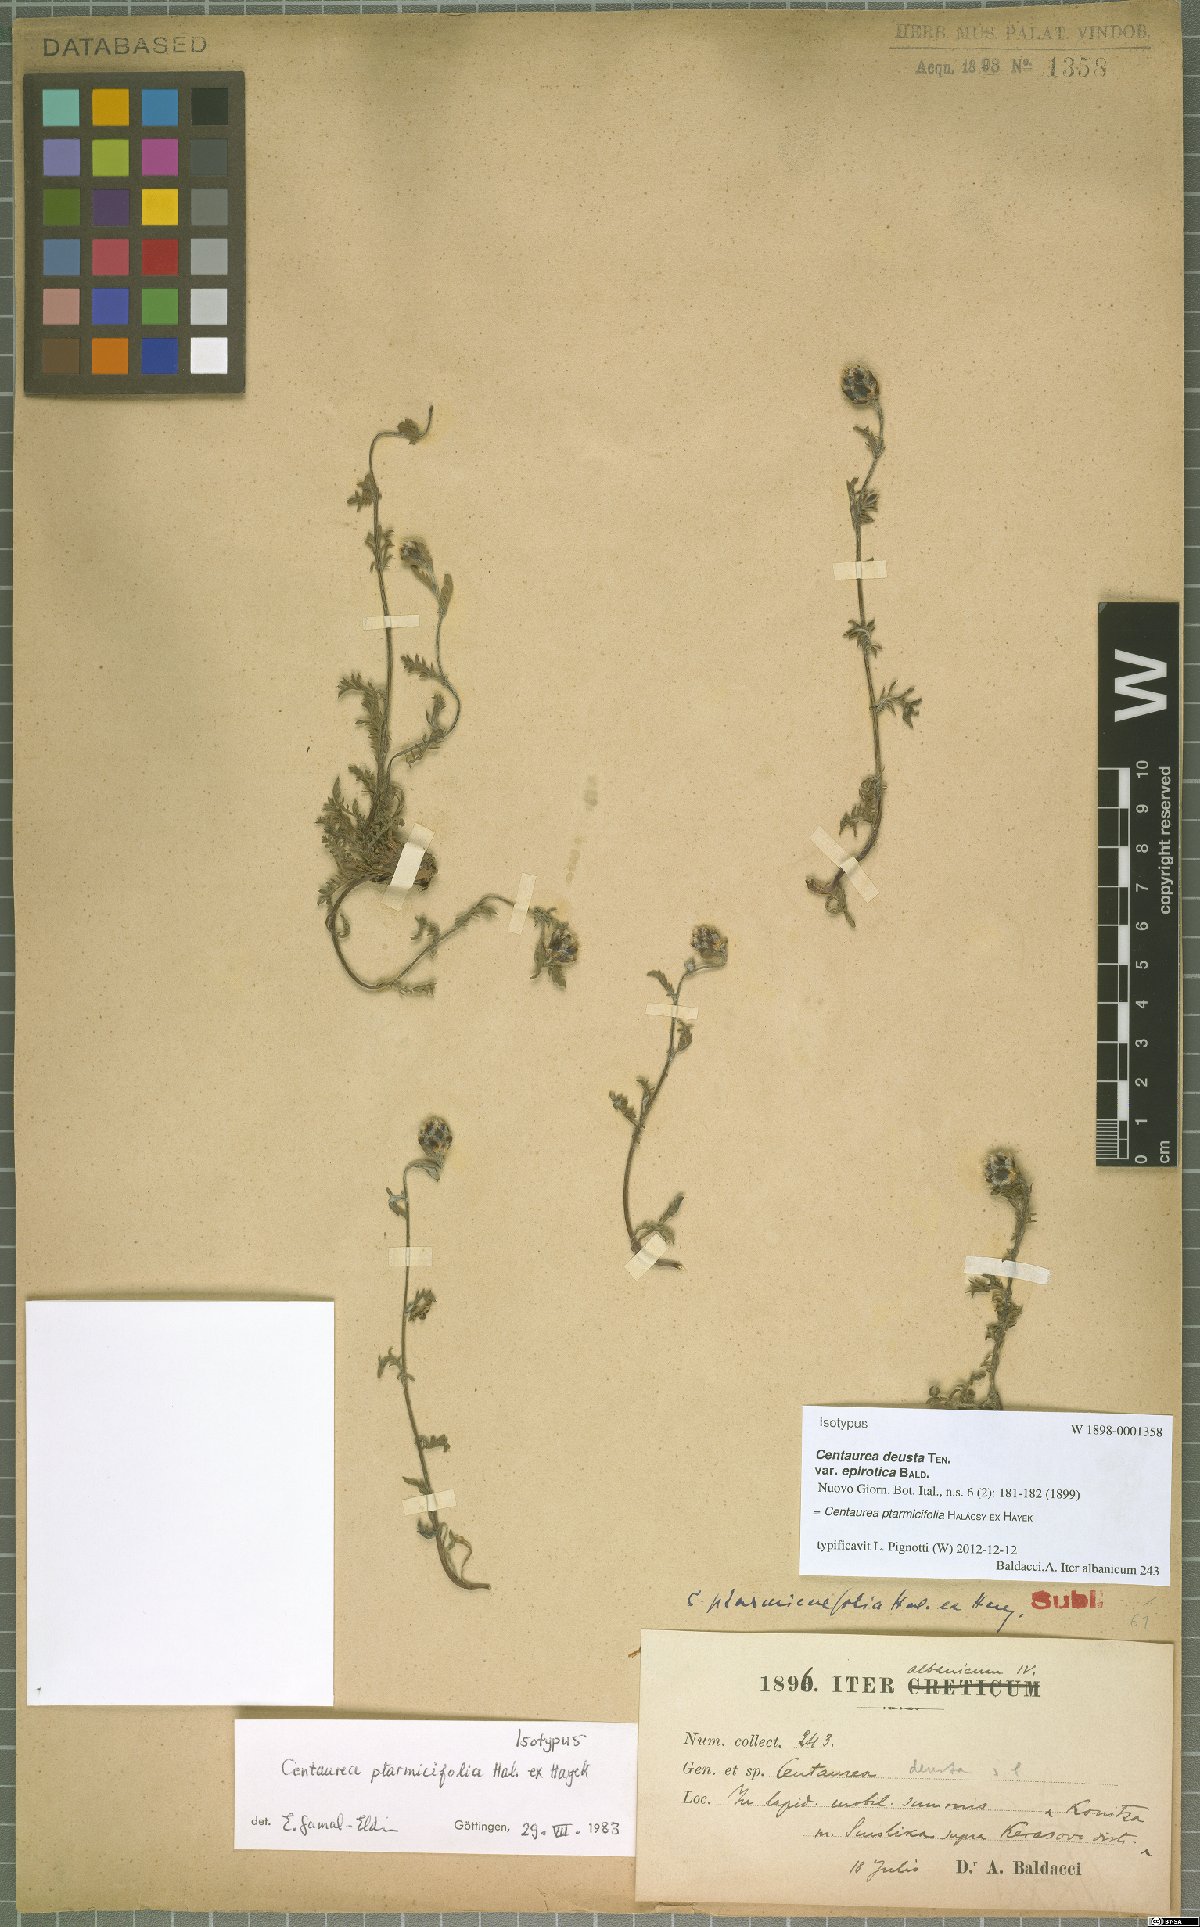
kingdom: Plantae
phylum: Tracheophyta
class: Magnoliopsida
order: Asterales
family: Asteraceae
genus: Centaurea
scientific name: Centaurea ptarmicifolia
